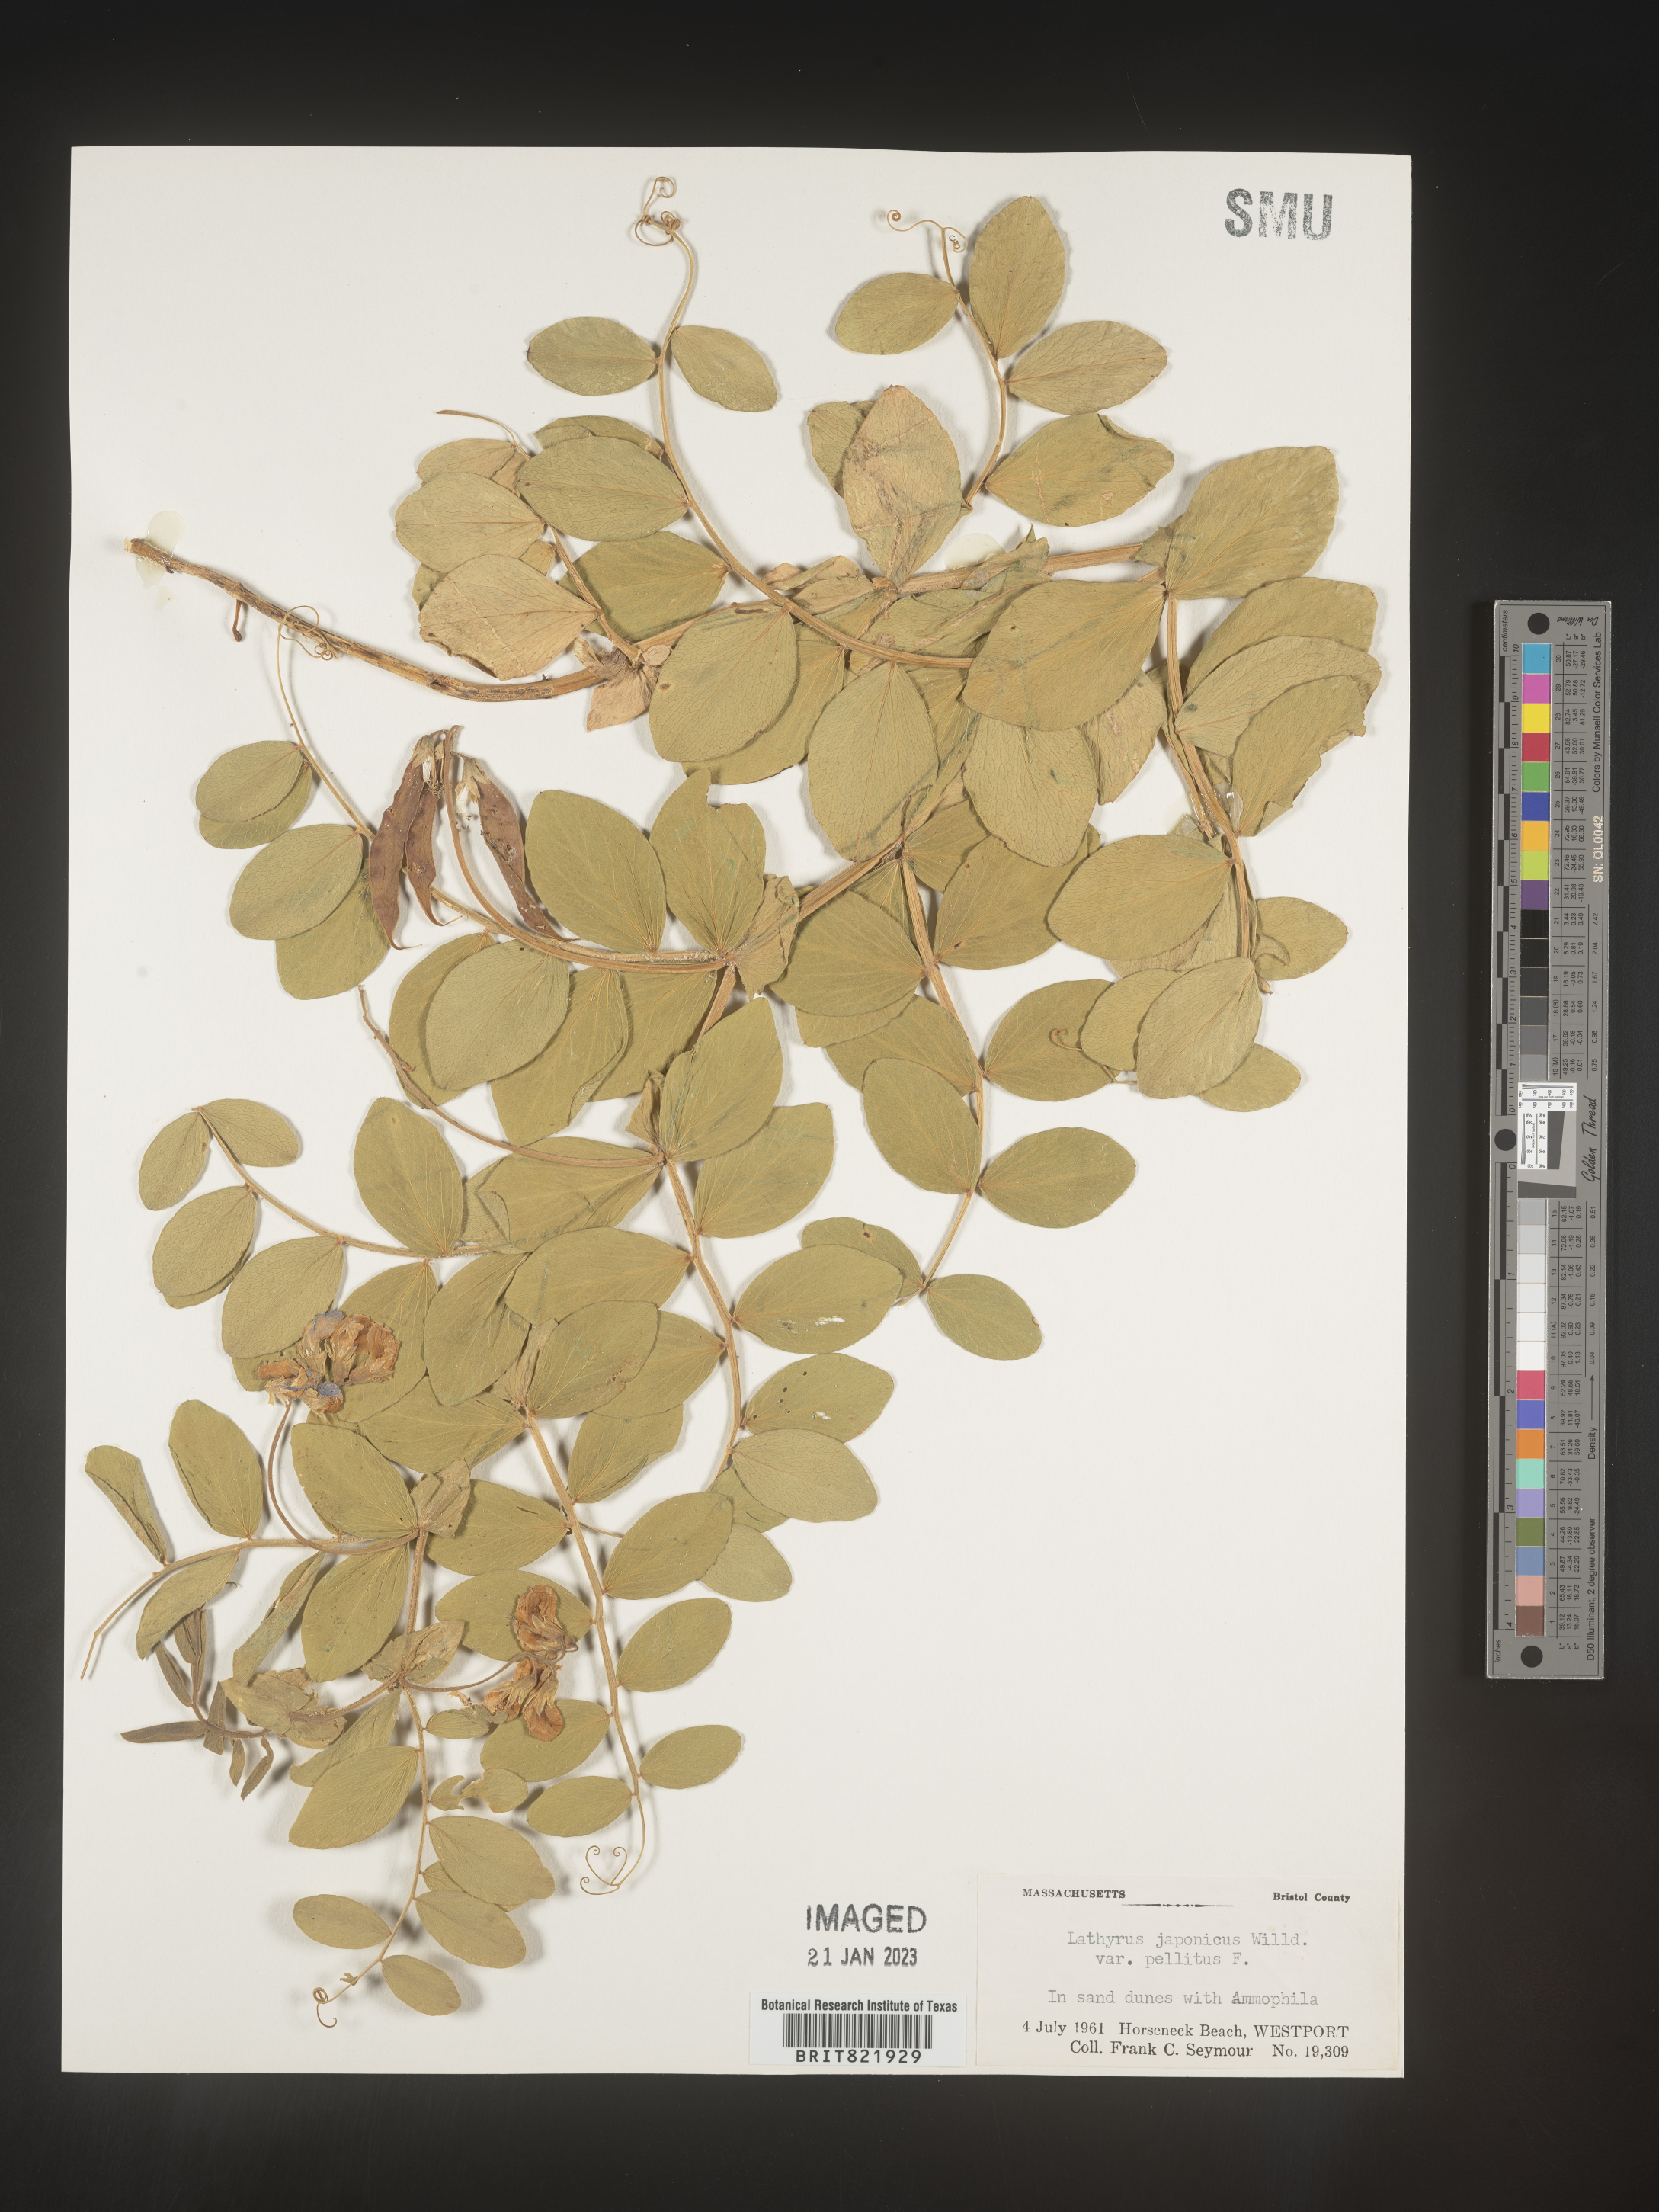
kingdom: Plantae
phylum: Tracheophyta
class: Magnoliopsida
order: Fabales
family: Fabaceae
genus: Lathyrus
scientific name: Lathyrus
